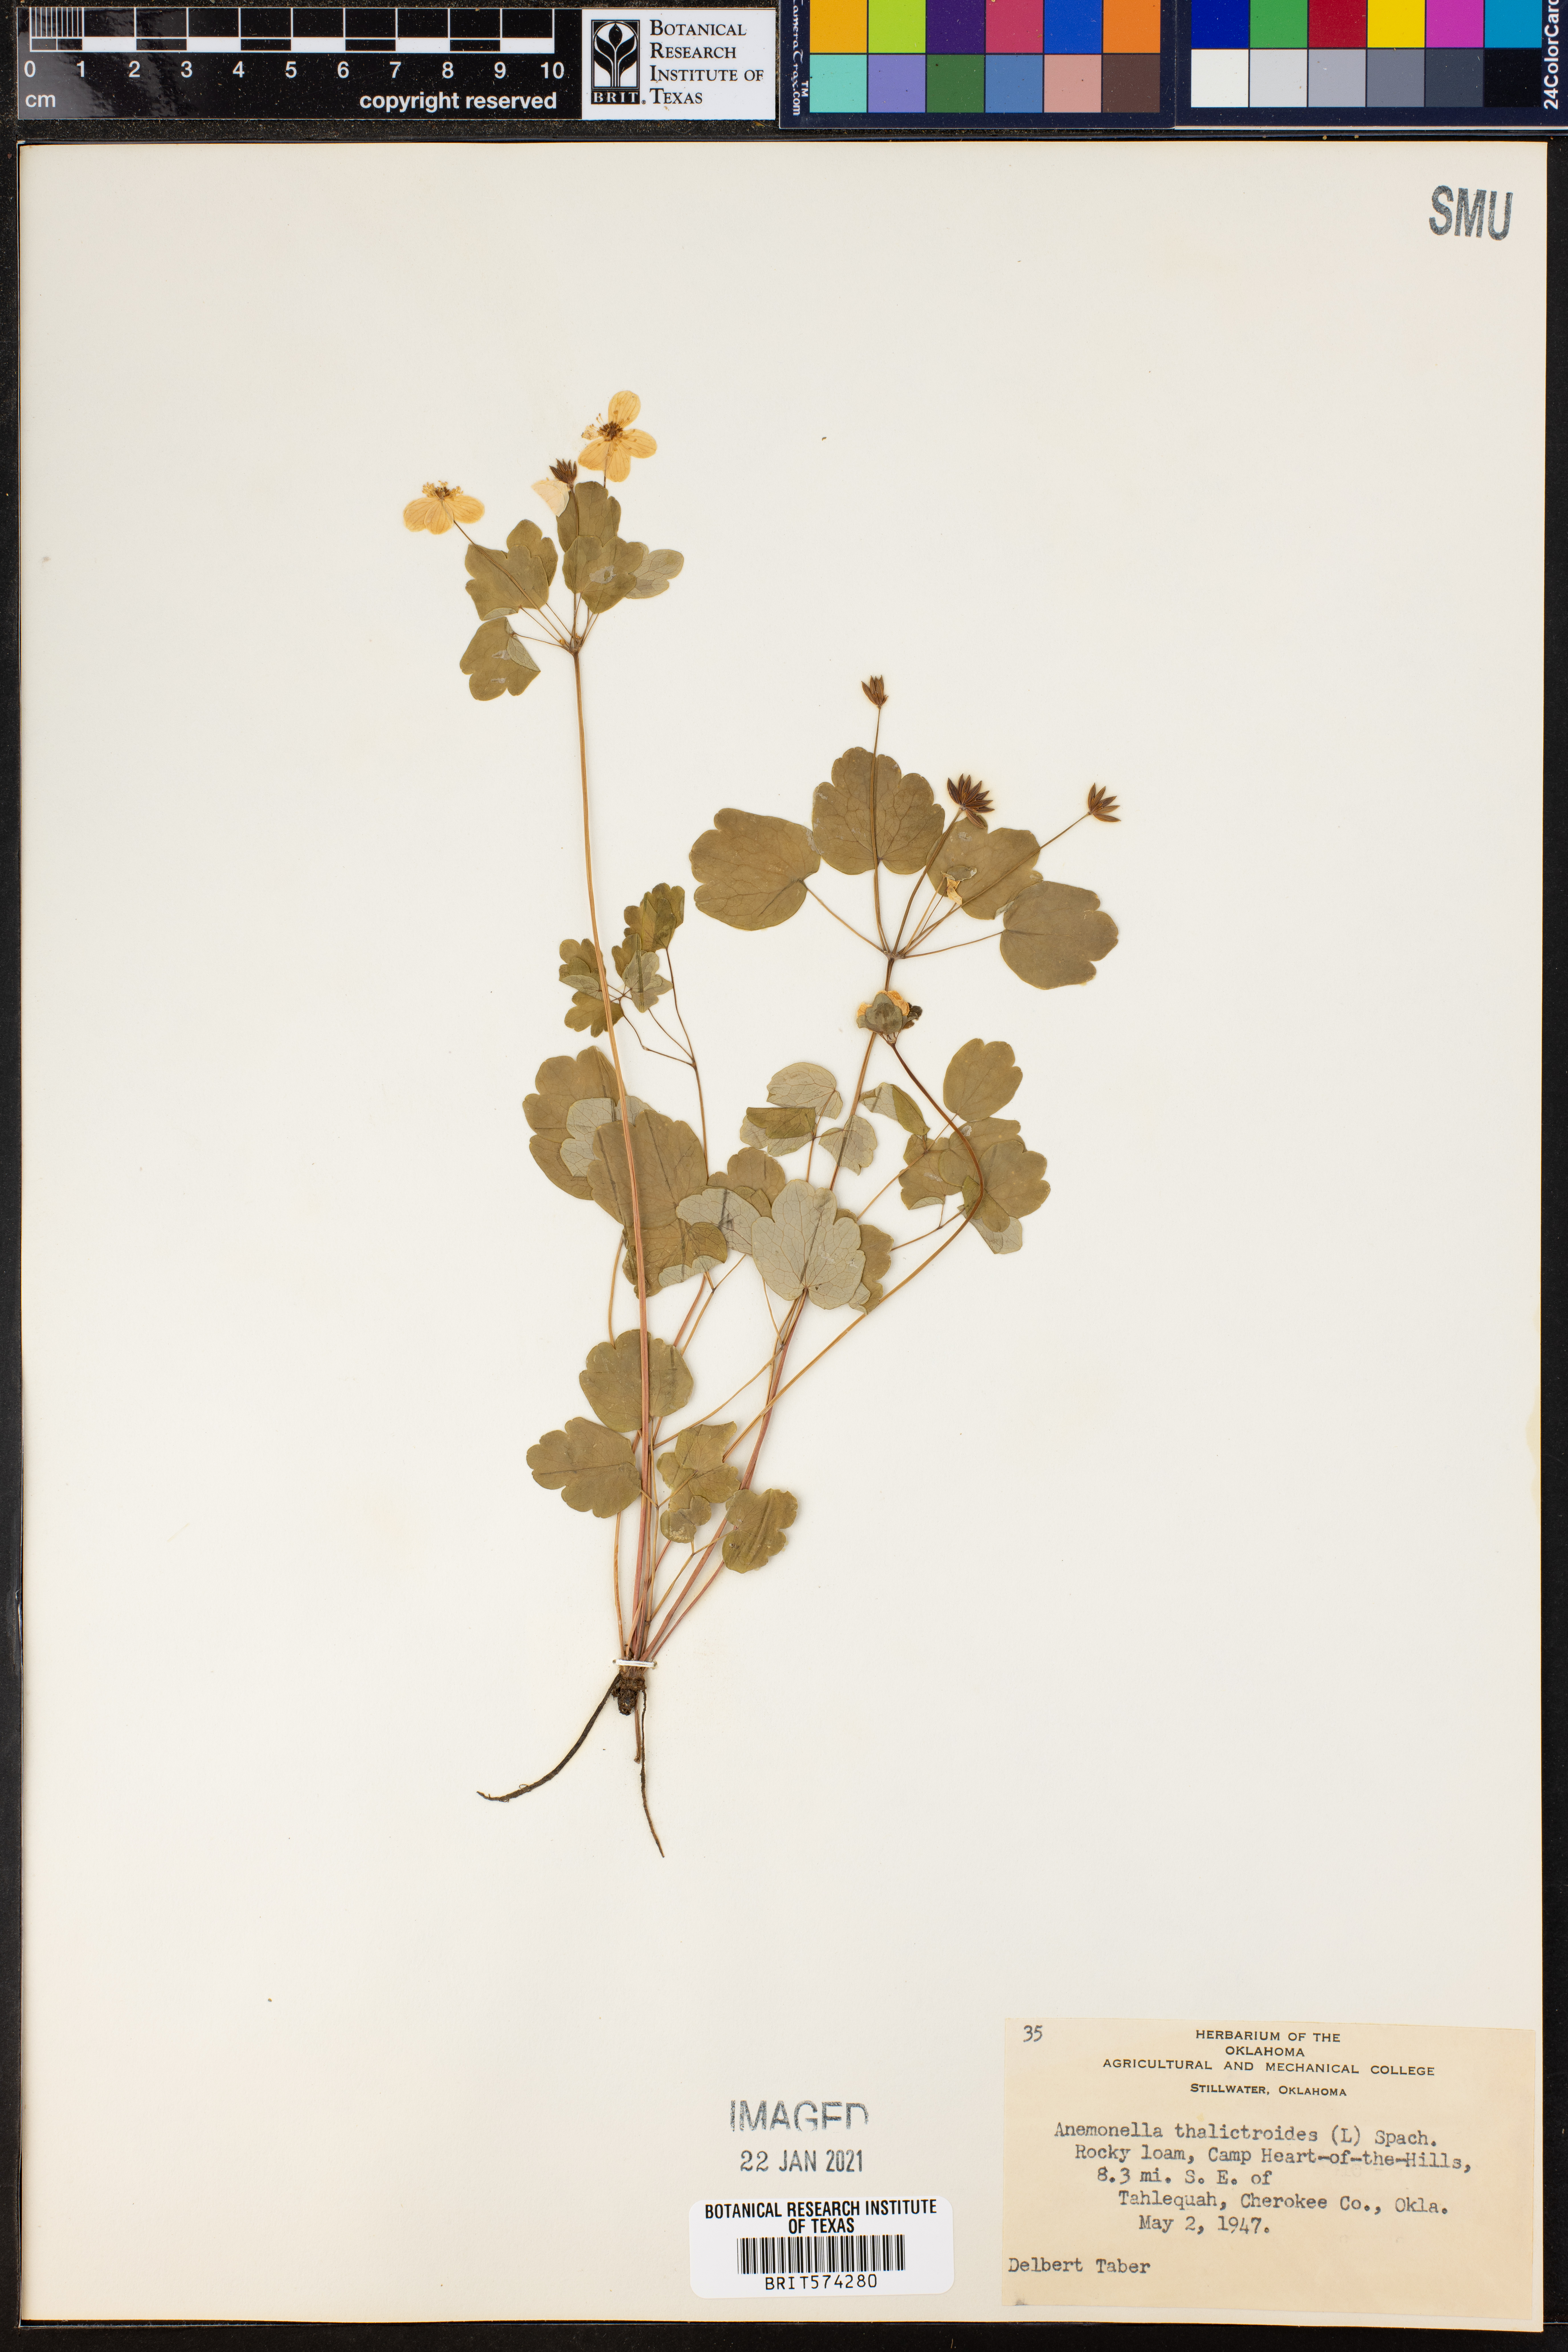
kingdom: Plantae
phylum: Tracheophyta
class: Magnoliopsida
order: Ranunculales
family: Ranunculaceae
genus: Thalictrum
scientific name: Thalictrum thalictroides
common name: Rue-anemone
